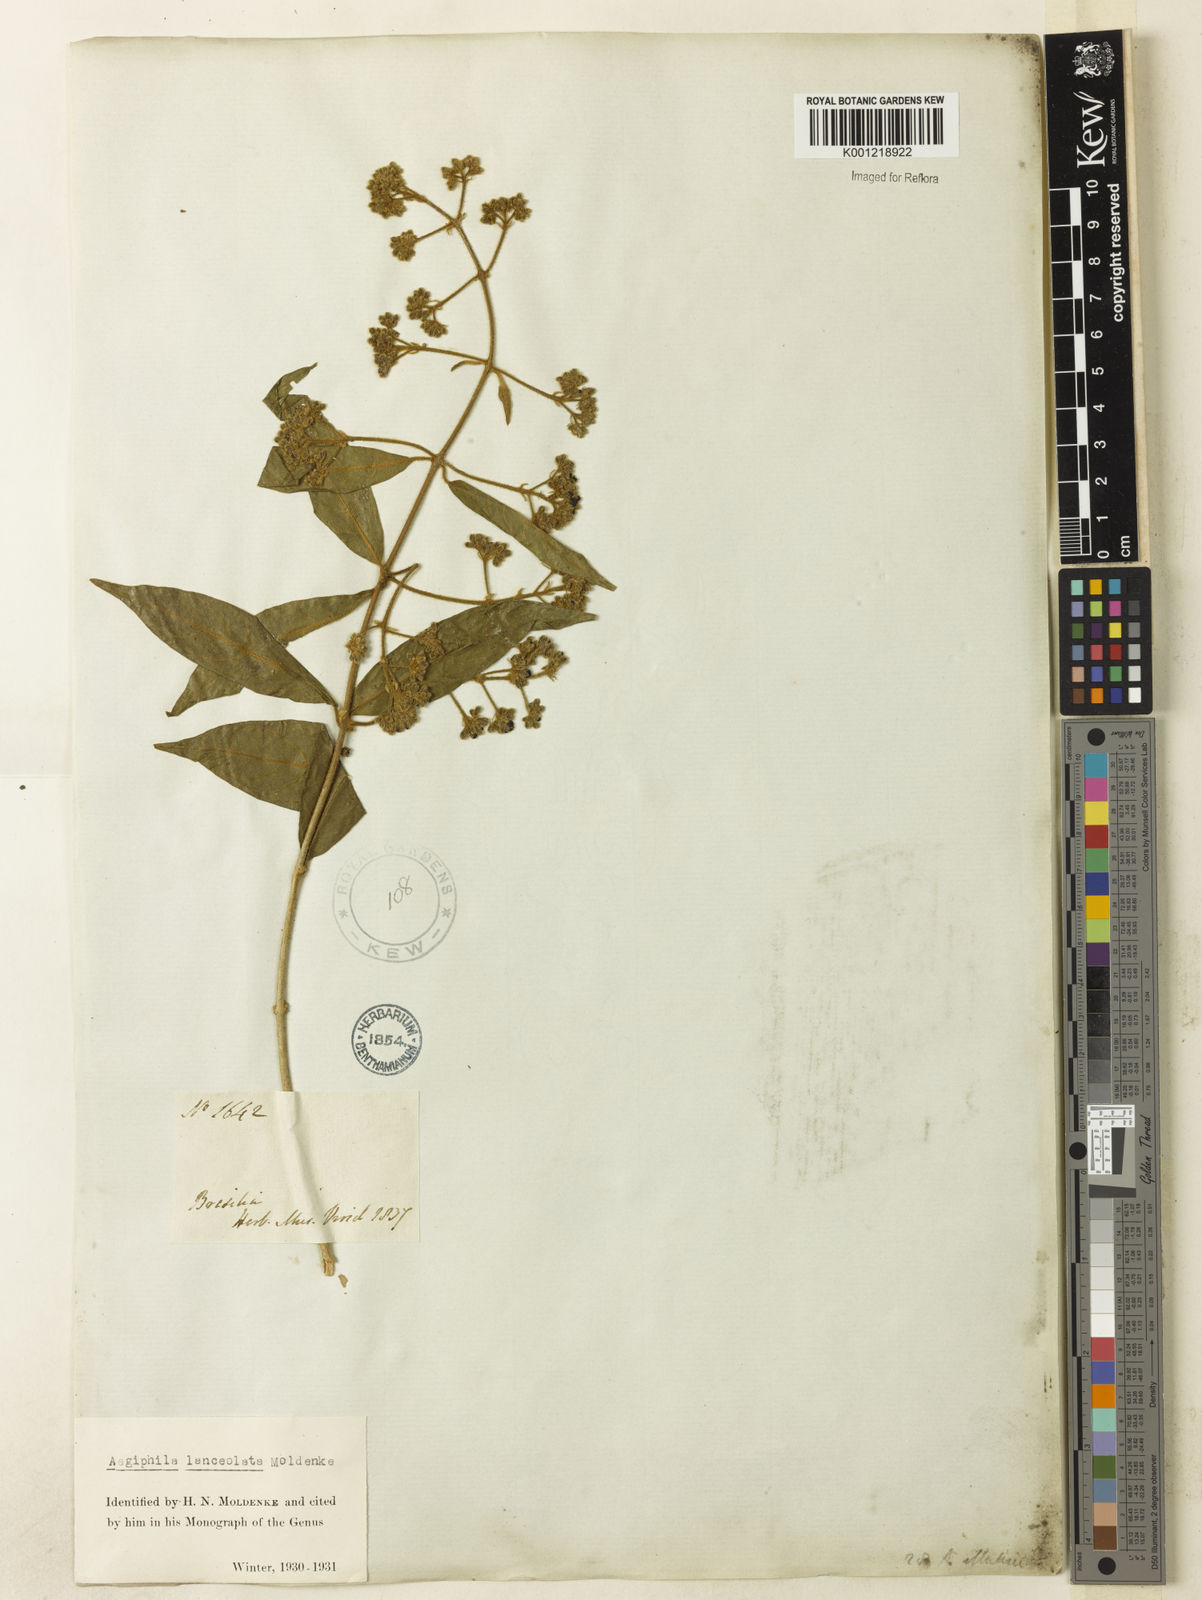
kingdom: Plantae
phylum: Tracheophyta
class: Magnoliopsida
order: Lamiales
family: Lamiaceae
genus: Aegiphila
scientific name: Aegiphila vitelliniflora
